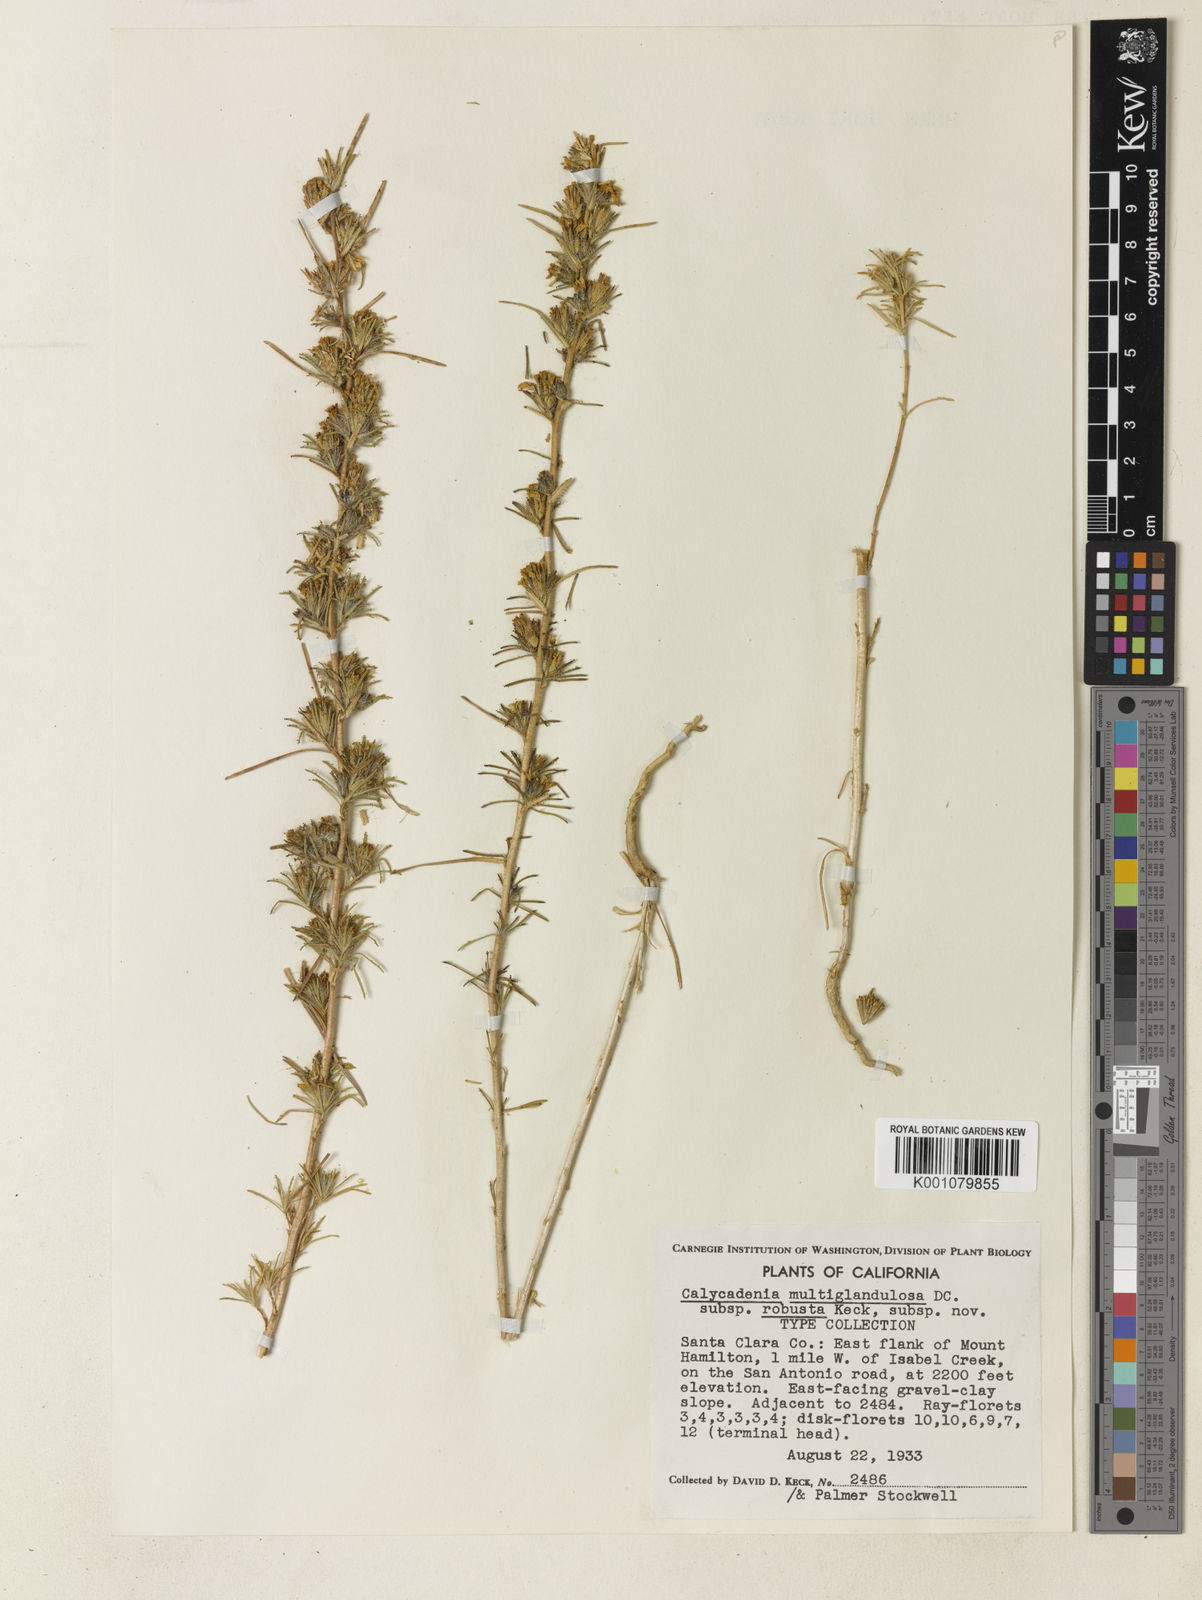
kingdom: Plantae
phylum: Tracheophyta
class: Magnoliopsida
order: Asterales
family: Asteraceae
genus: Calycadenia
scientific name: Calycadenia multiglandulosa
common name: Sticky calycadenia
